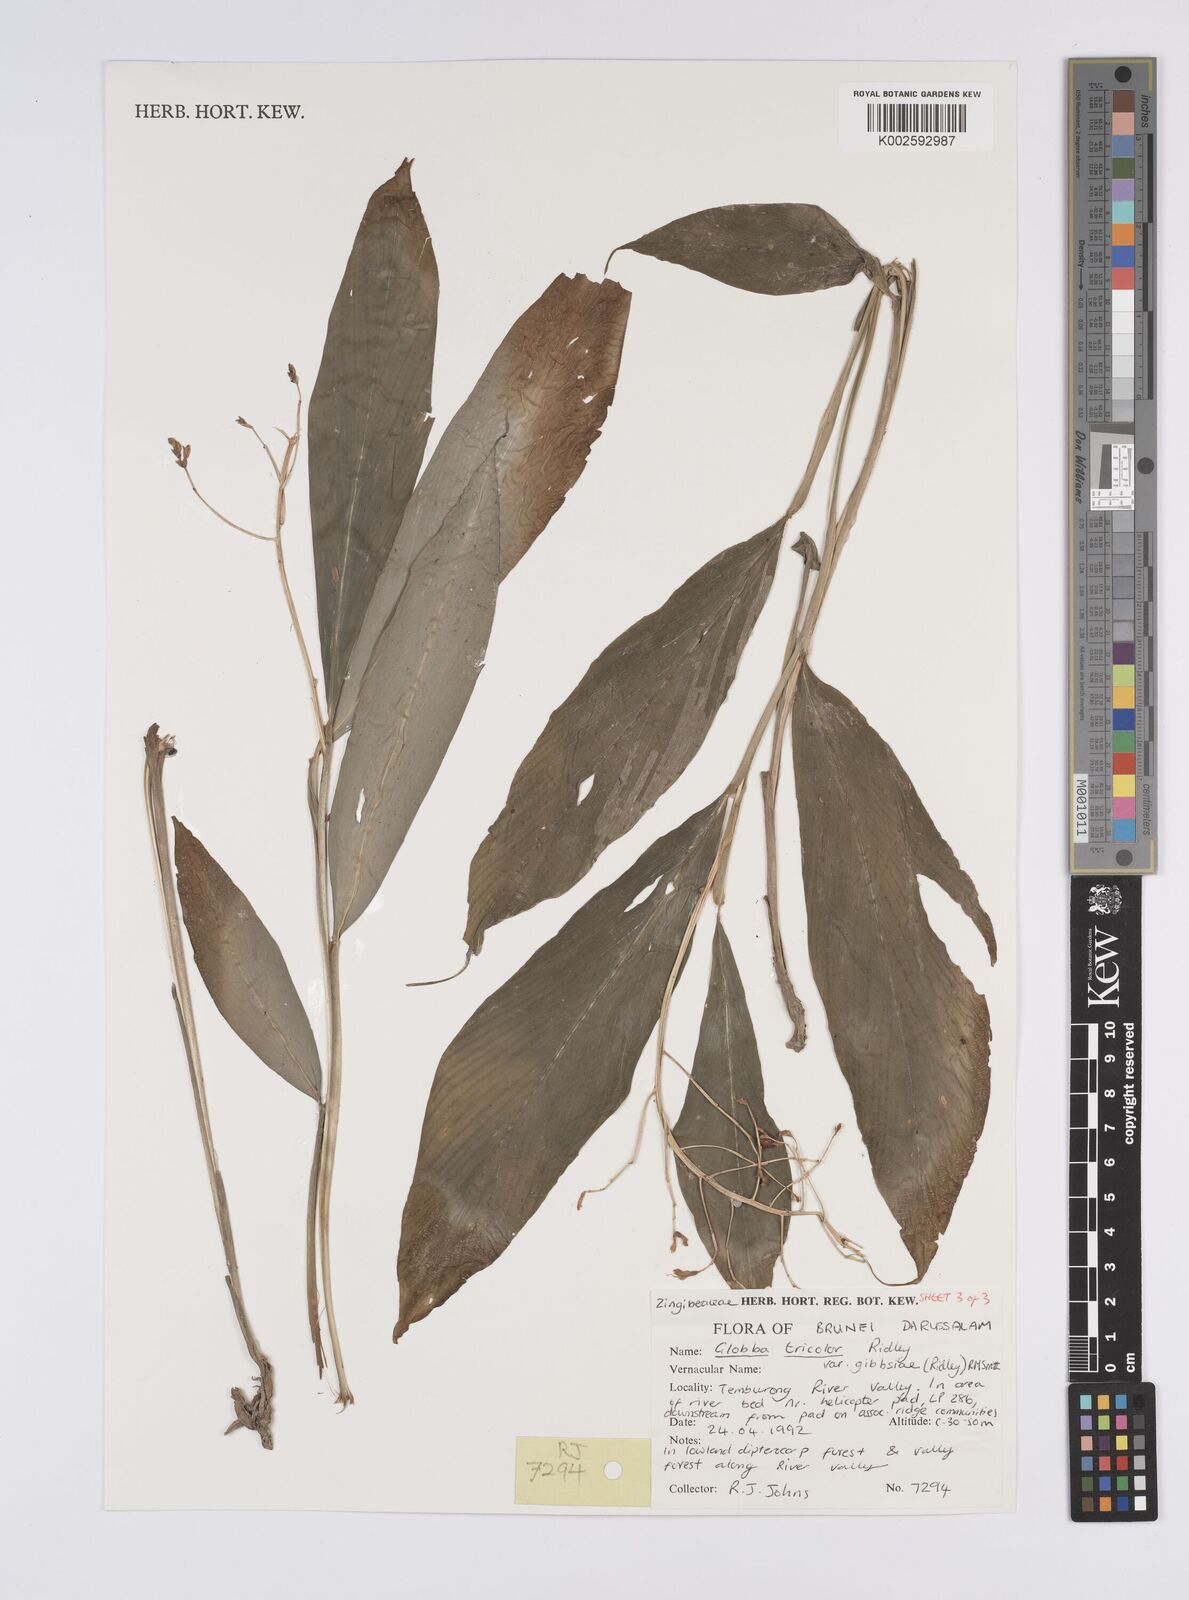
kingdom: Plantae
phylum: Tracheophyta
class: Liliopsida
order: Zingiberales
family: Zingiberaceae
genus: Globba
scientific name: Globba tricolor
